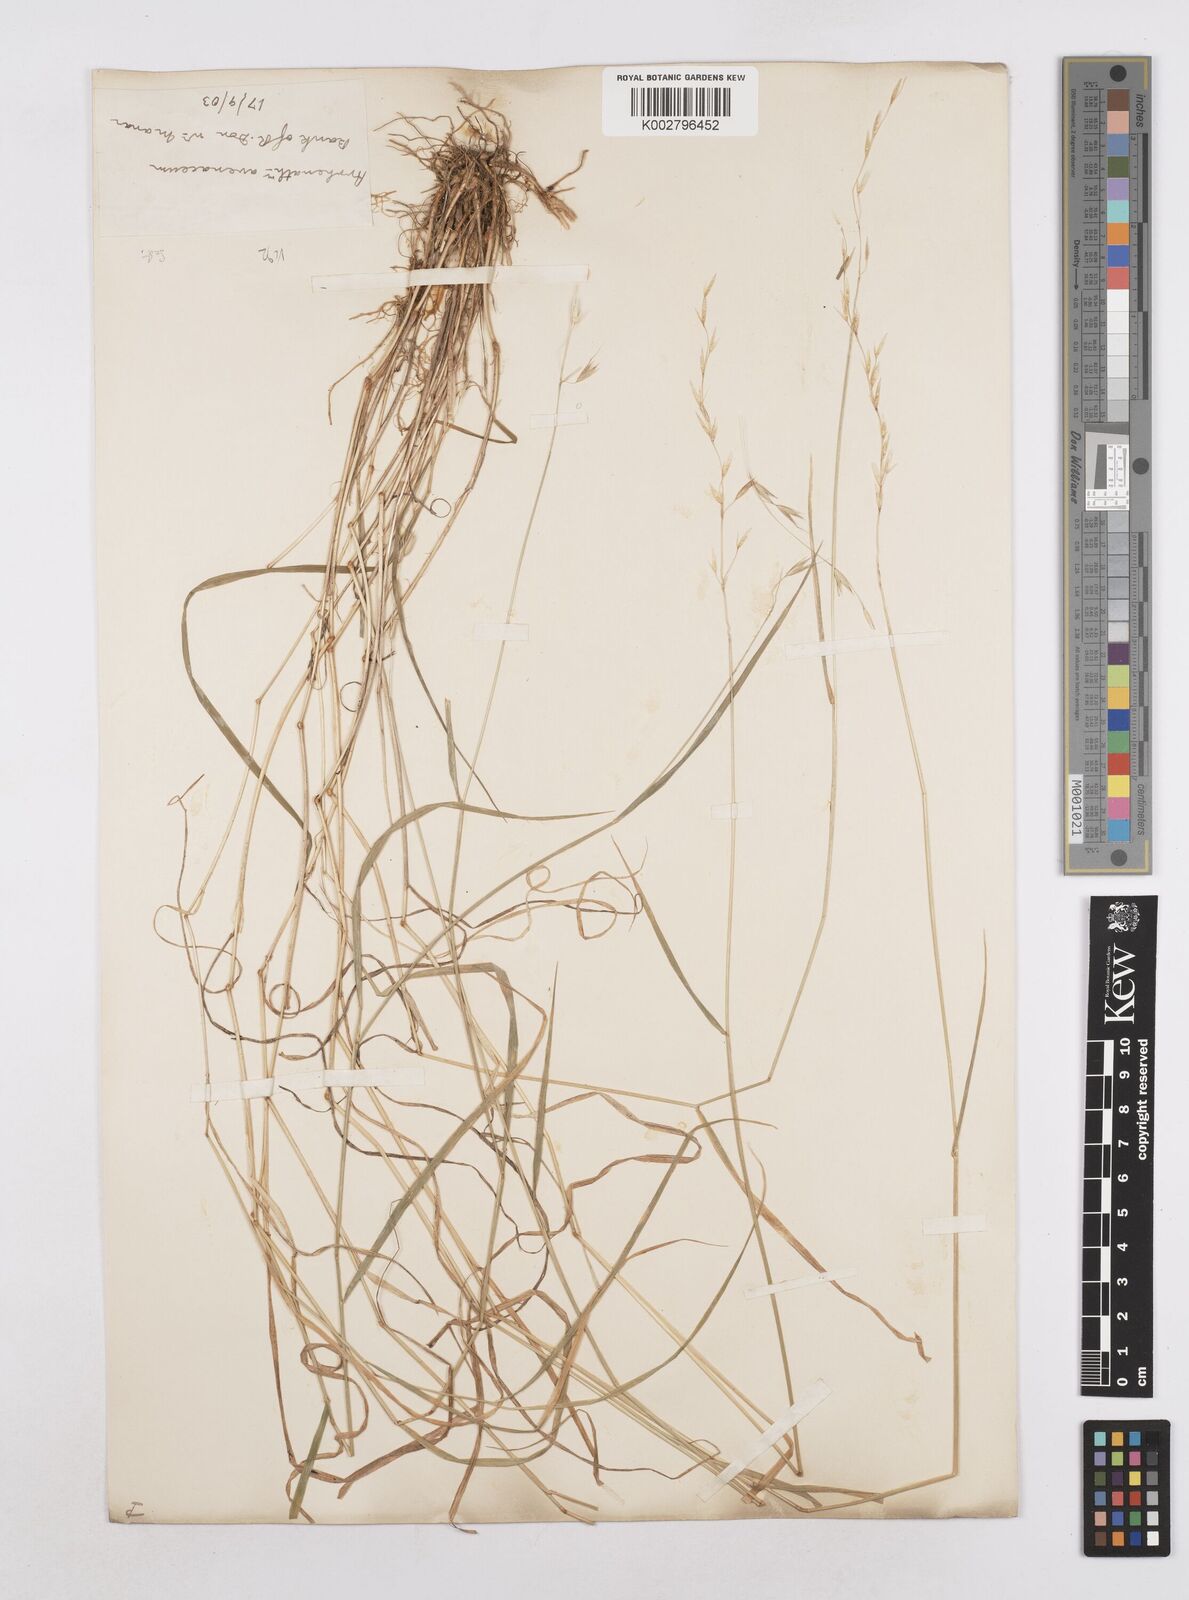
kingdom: Plantae
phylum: Tracheophyta
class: Liliopsida
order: Poales
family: Poaceae
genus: Arrhenatherum
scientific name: Arrhenatherum elatius
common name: Tall oatgrass
